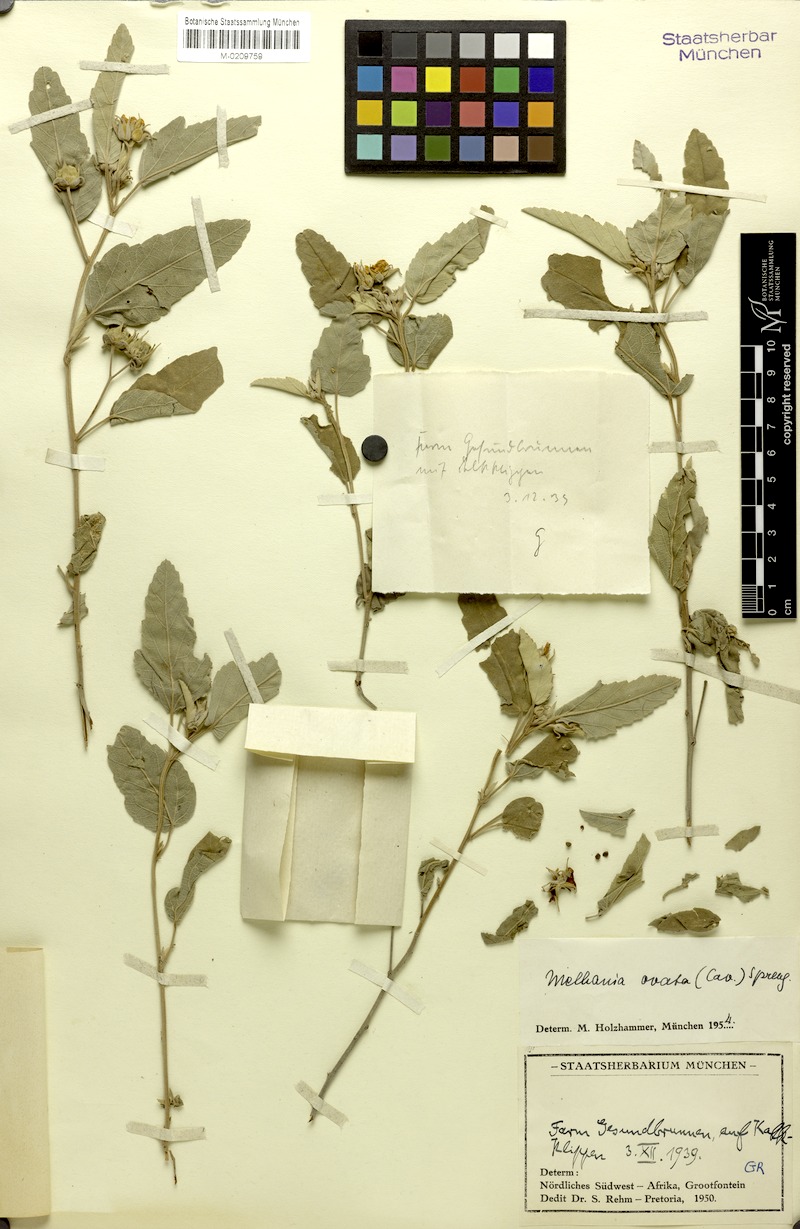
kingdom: Plantae
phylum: Tracheophyta
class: Magnoliopsida
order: Malvales
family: Malvaceae
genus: Melhania
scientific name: Melhania ovata
